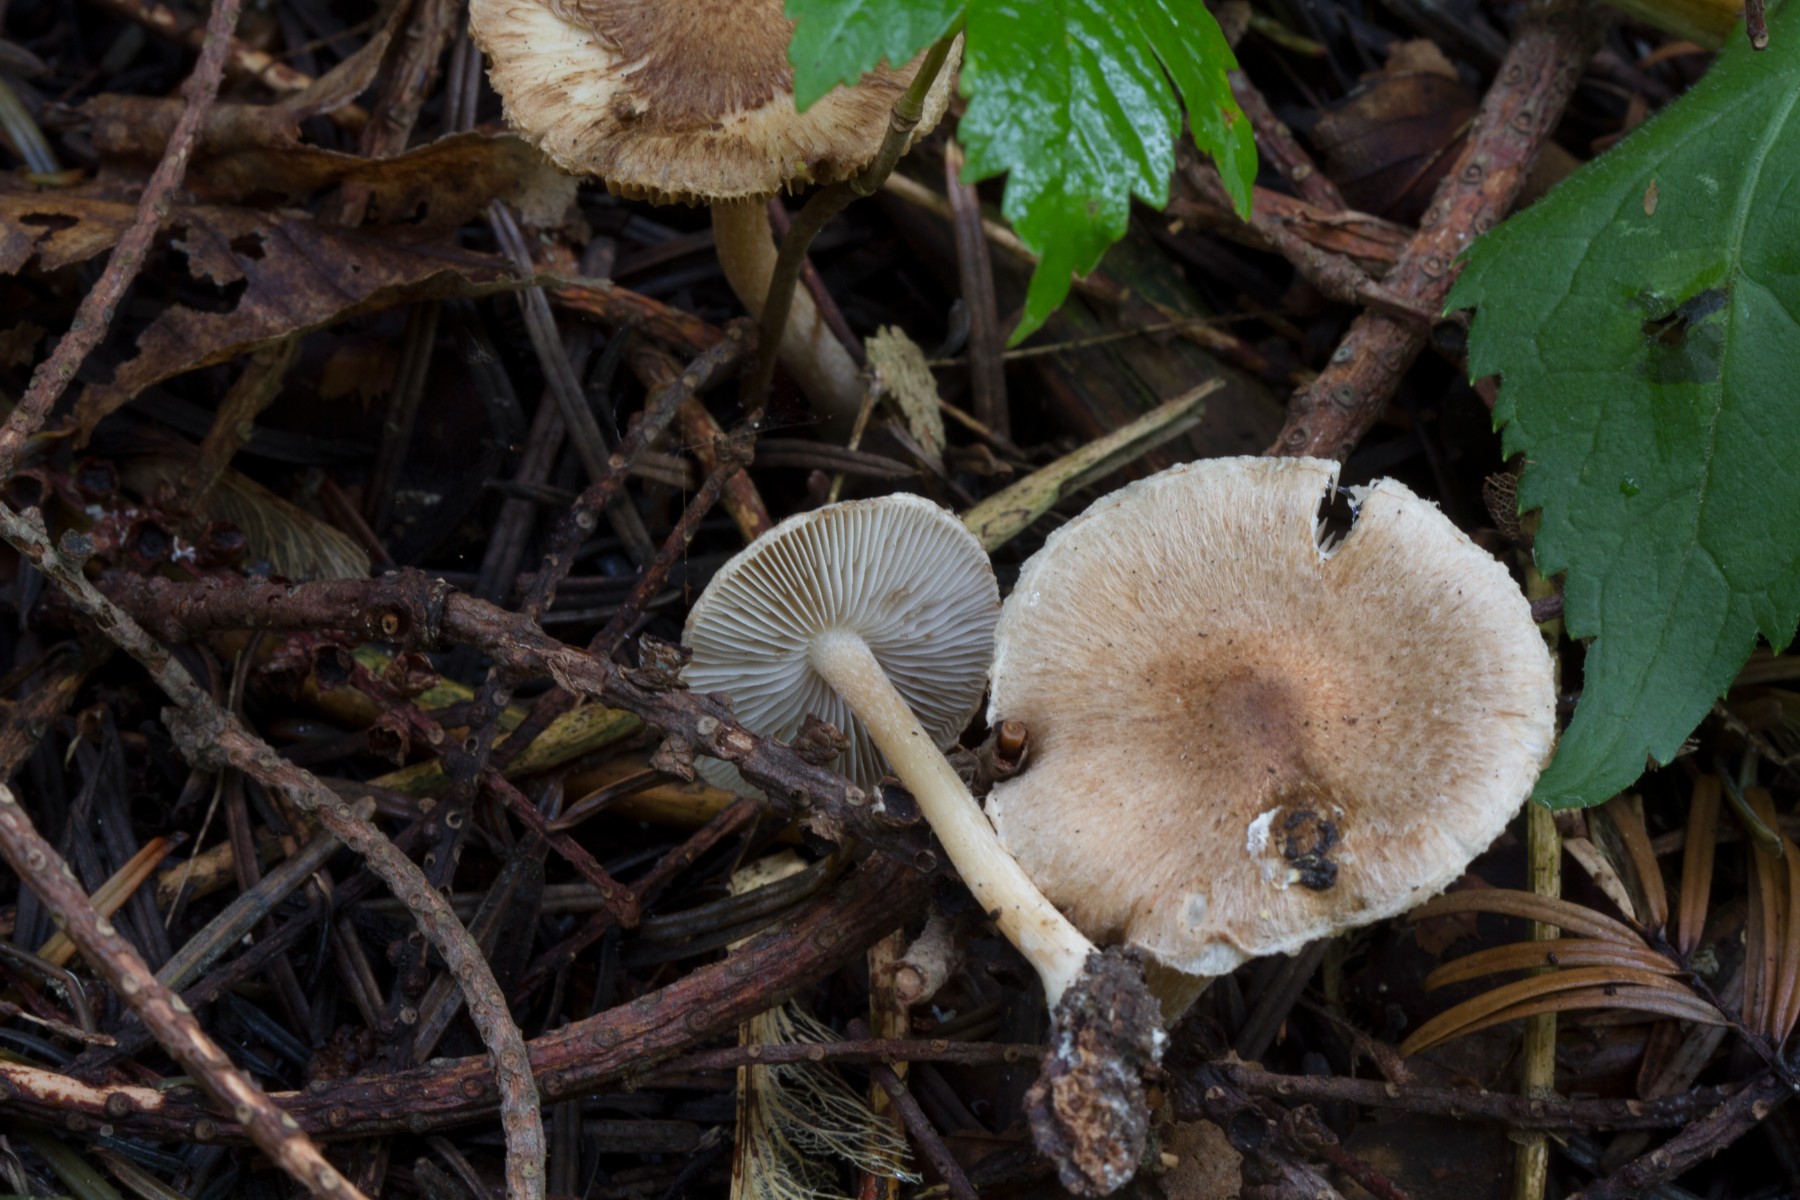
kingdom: Fungi
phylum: Basidiomycota
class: Agaricomycetes
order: Agaricales
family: Inocybaceae
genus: Inocybe
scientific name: Inocybe
